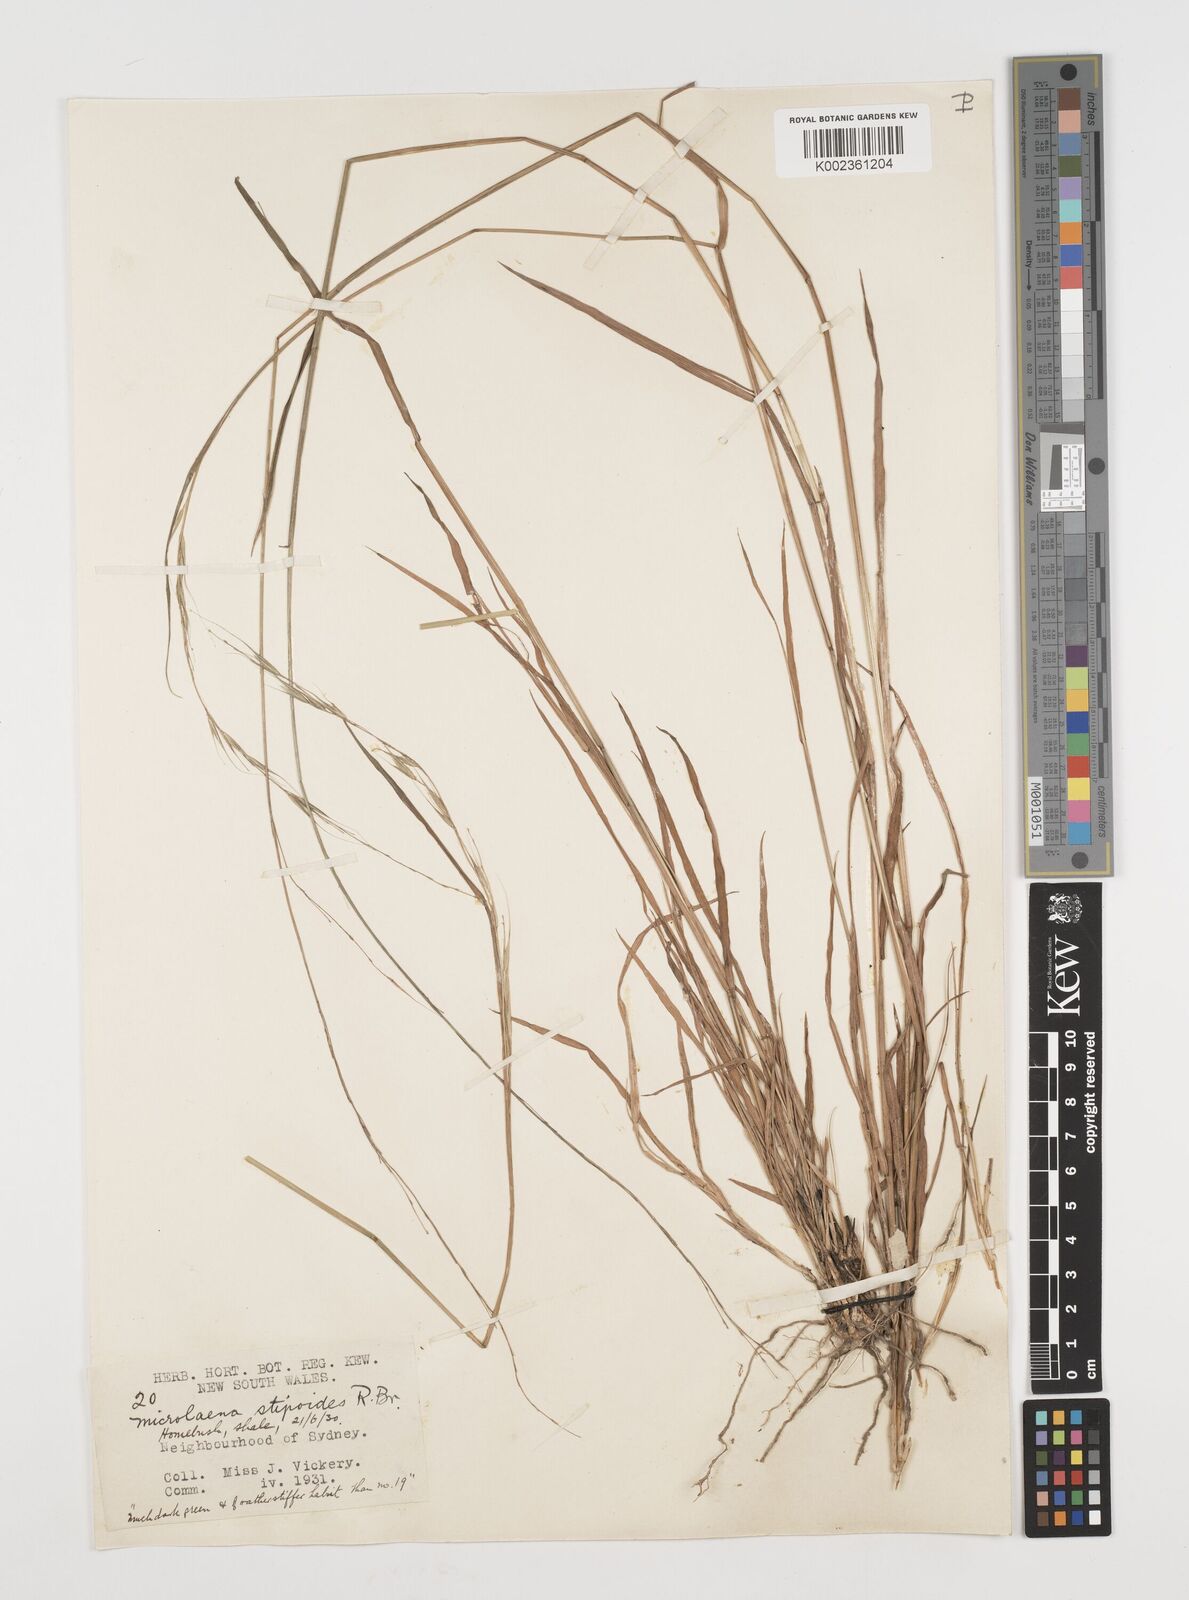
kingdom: Plantae
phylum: Tracheophyta
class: Liliopsida
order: Poales
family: Poaceae
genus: Microlaena
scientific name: Microlaena stipoides
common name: Meadow ricegrass
